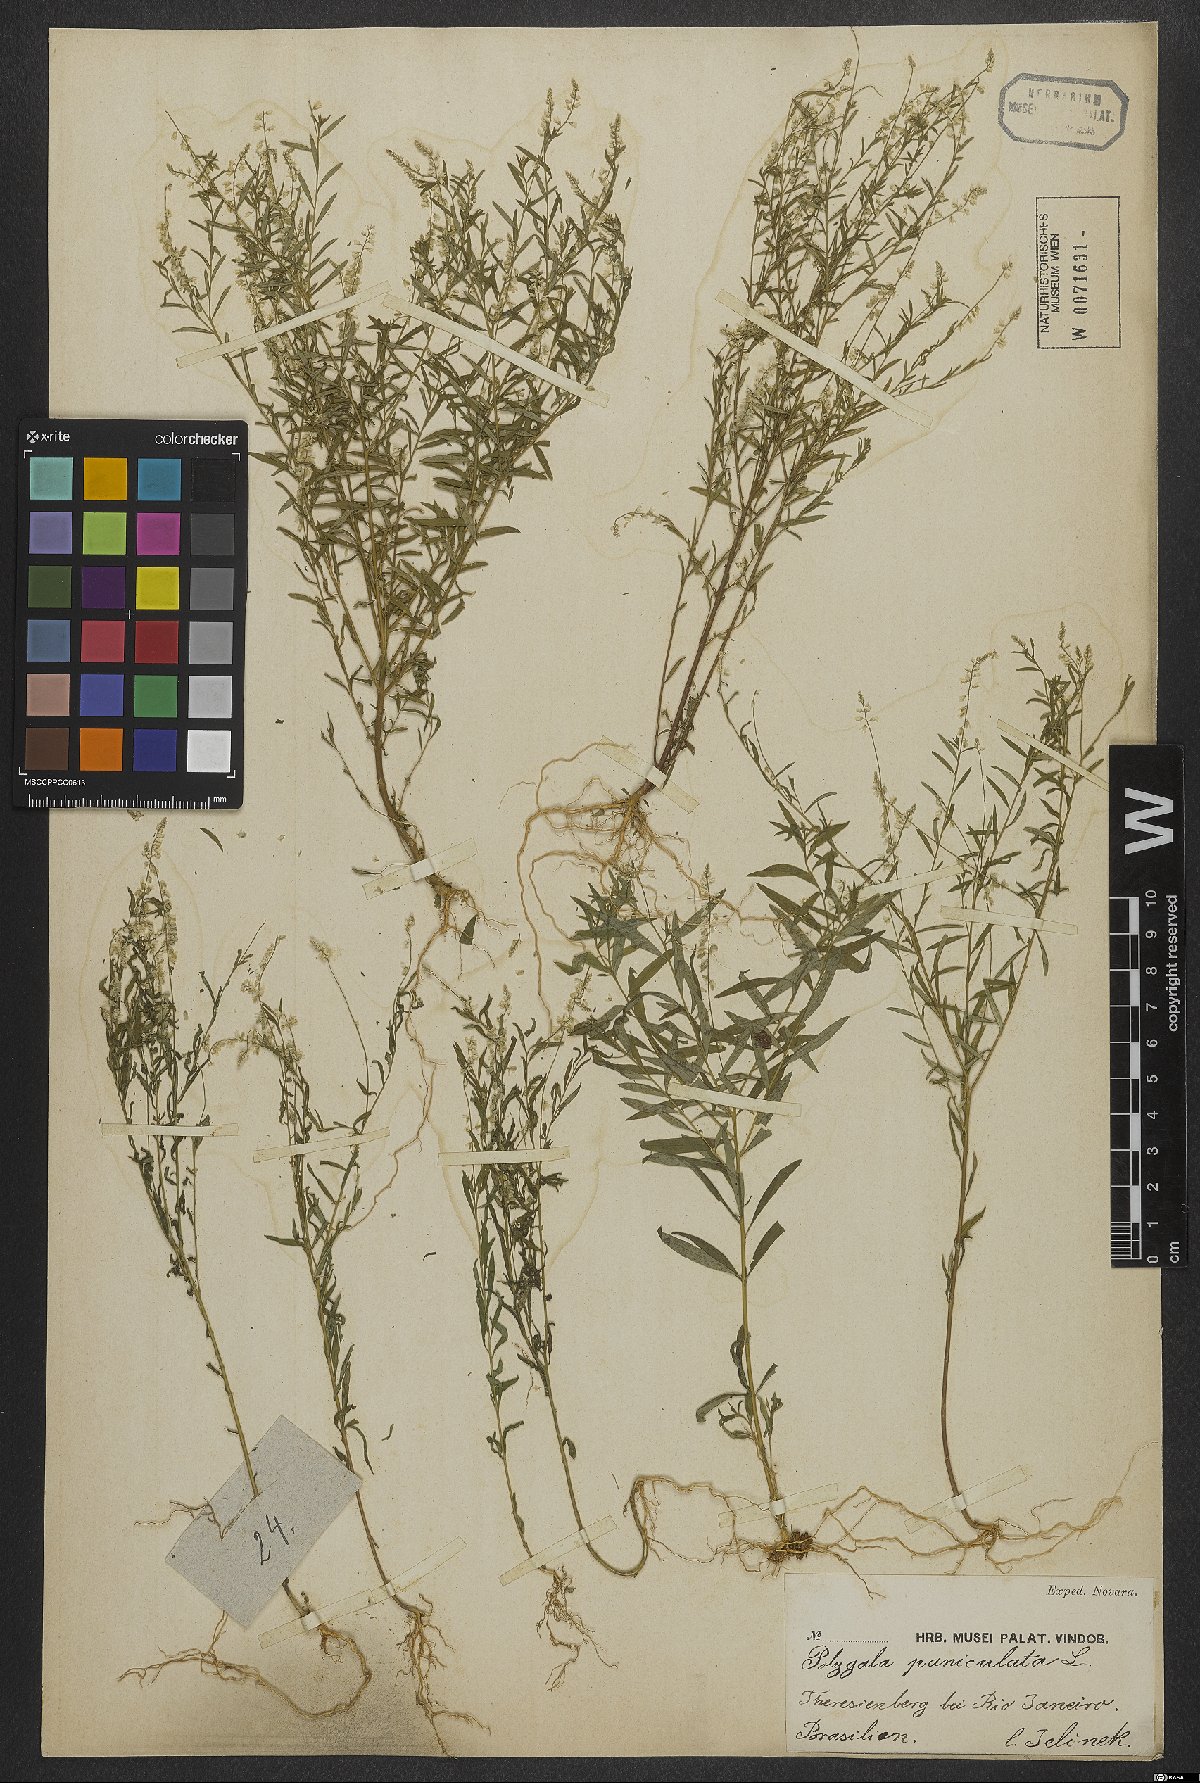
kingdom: Plantae
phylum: Tracheophyta
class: Magnoliopsida
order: Fabales
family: Polygalaceae
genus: Polygala
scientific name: Polygala exilis
